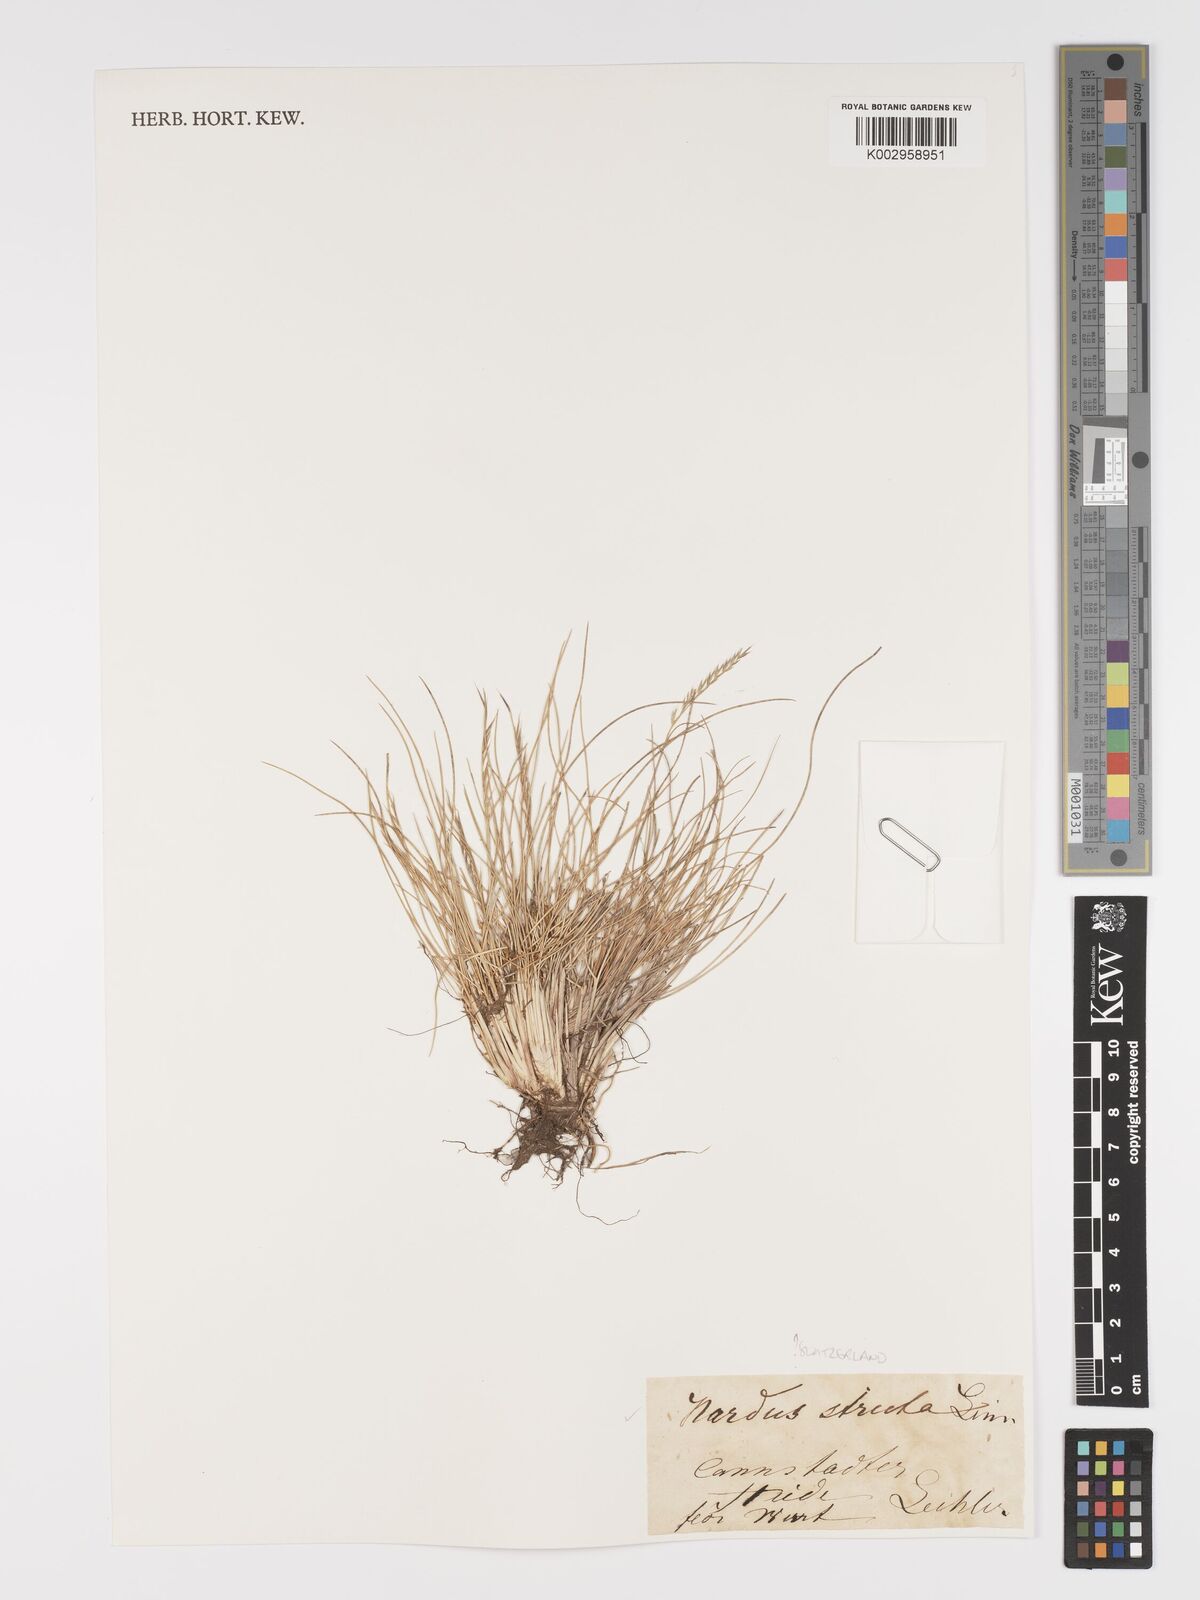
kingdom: Plantae
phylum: Tracheophyta
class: Liliopsida
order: Poales
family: Poaceae
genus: Nardus
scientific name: Nardus stricta
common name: Mat-grass
